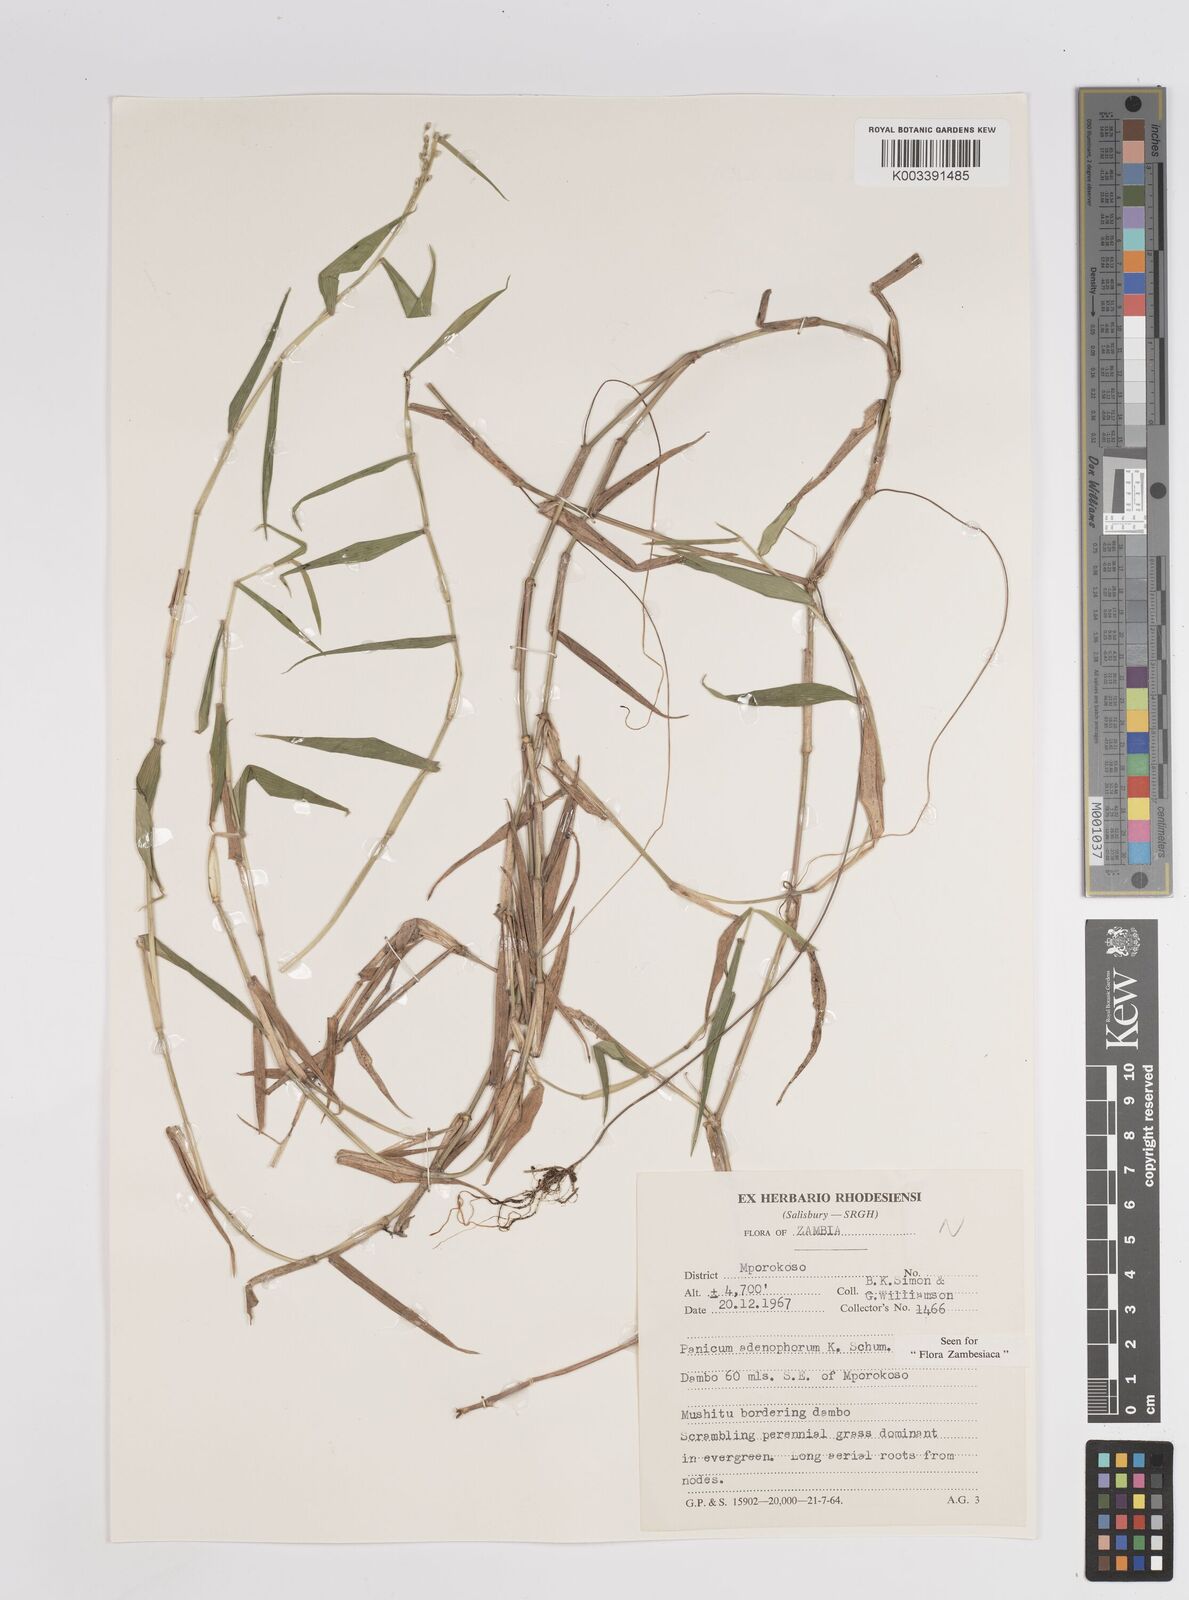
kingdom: Plantae
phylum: Tracheophyta
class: Liliopsida
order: Poales
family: Poaceae
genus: Adenochloa
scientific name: Adenochloa adenophora
